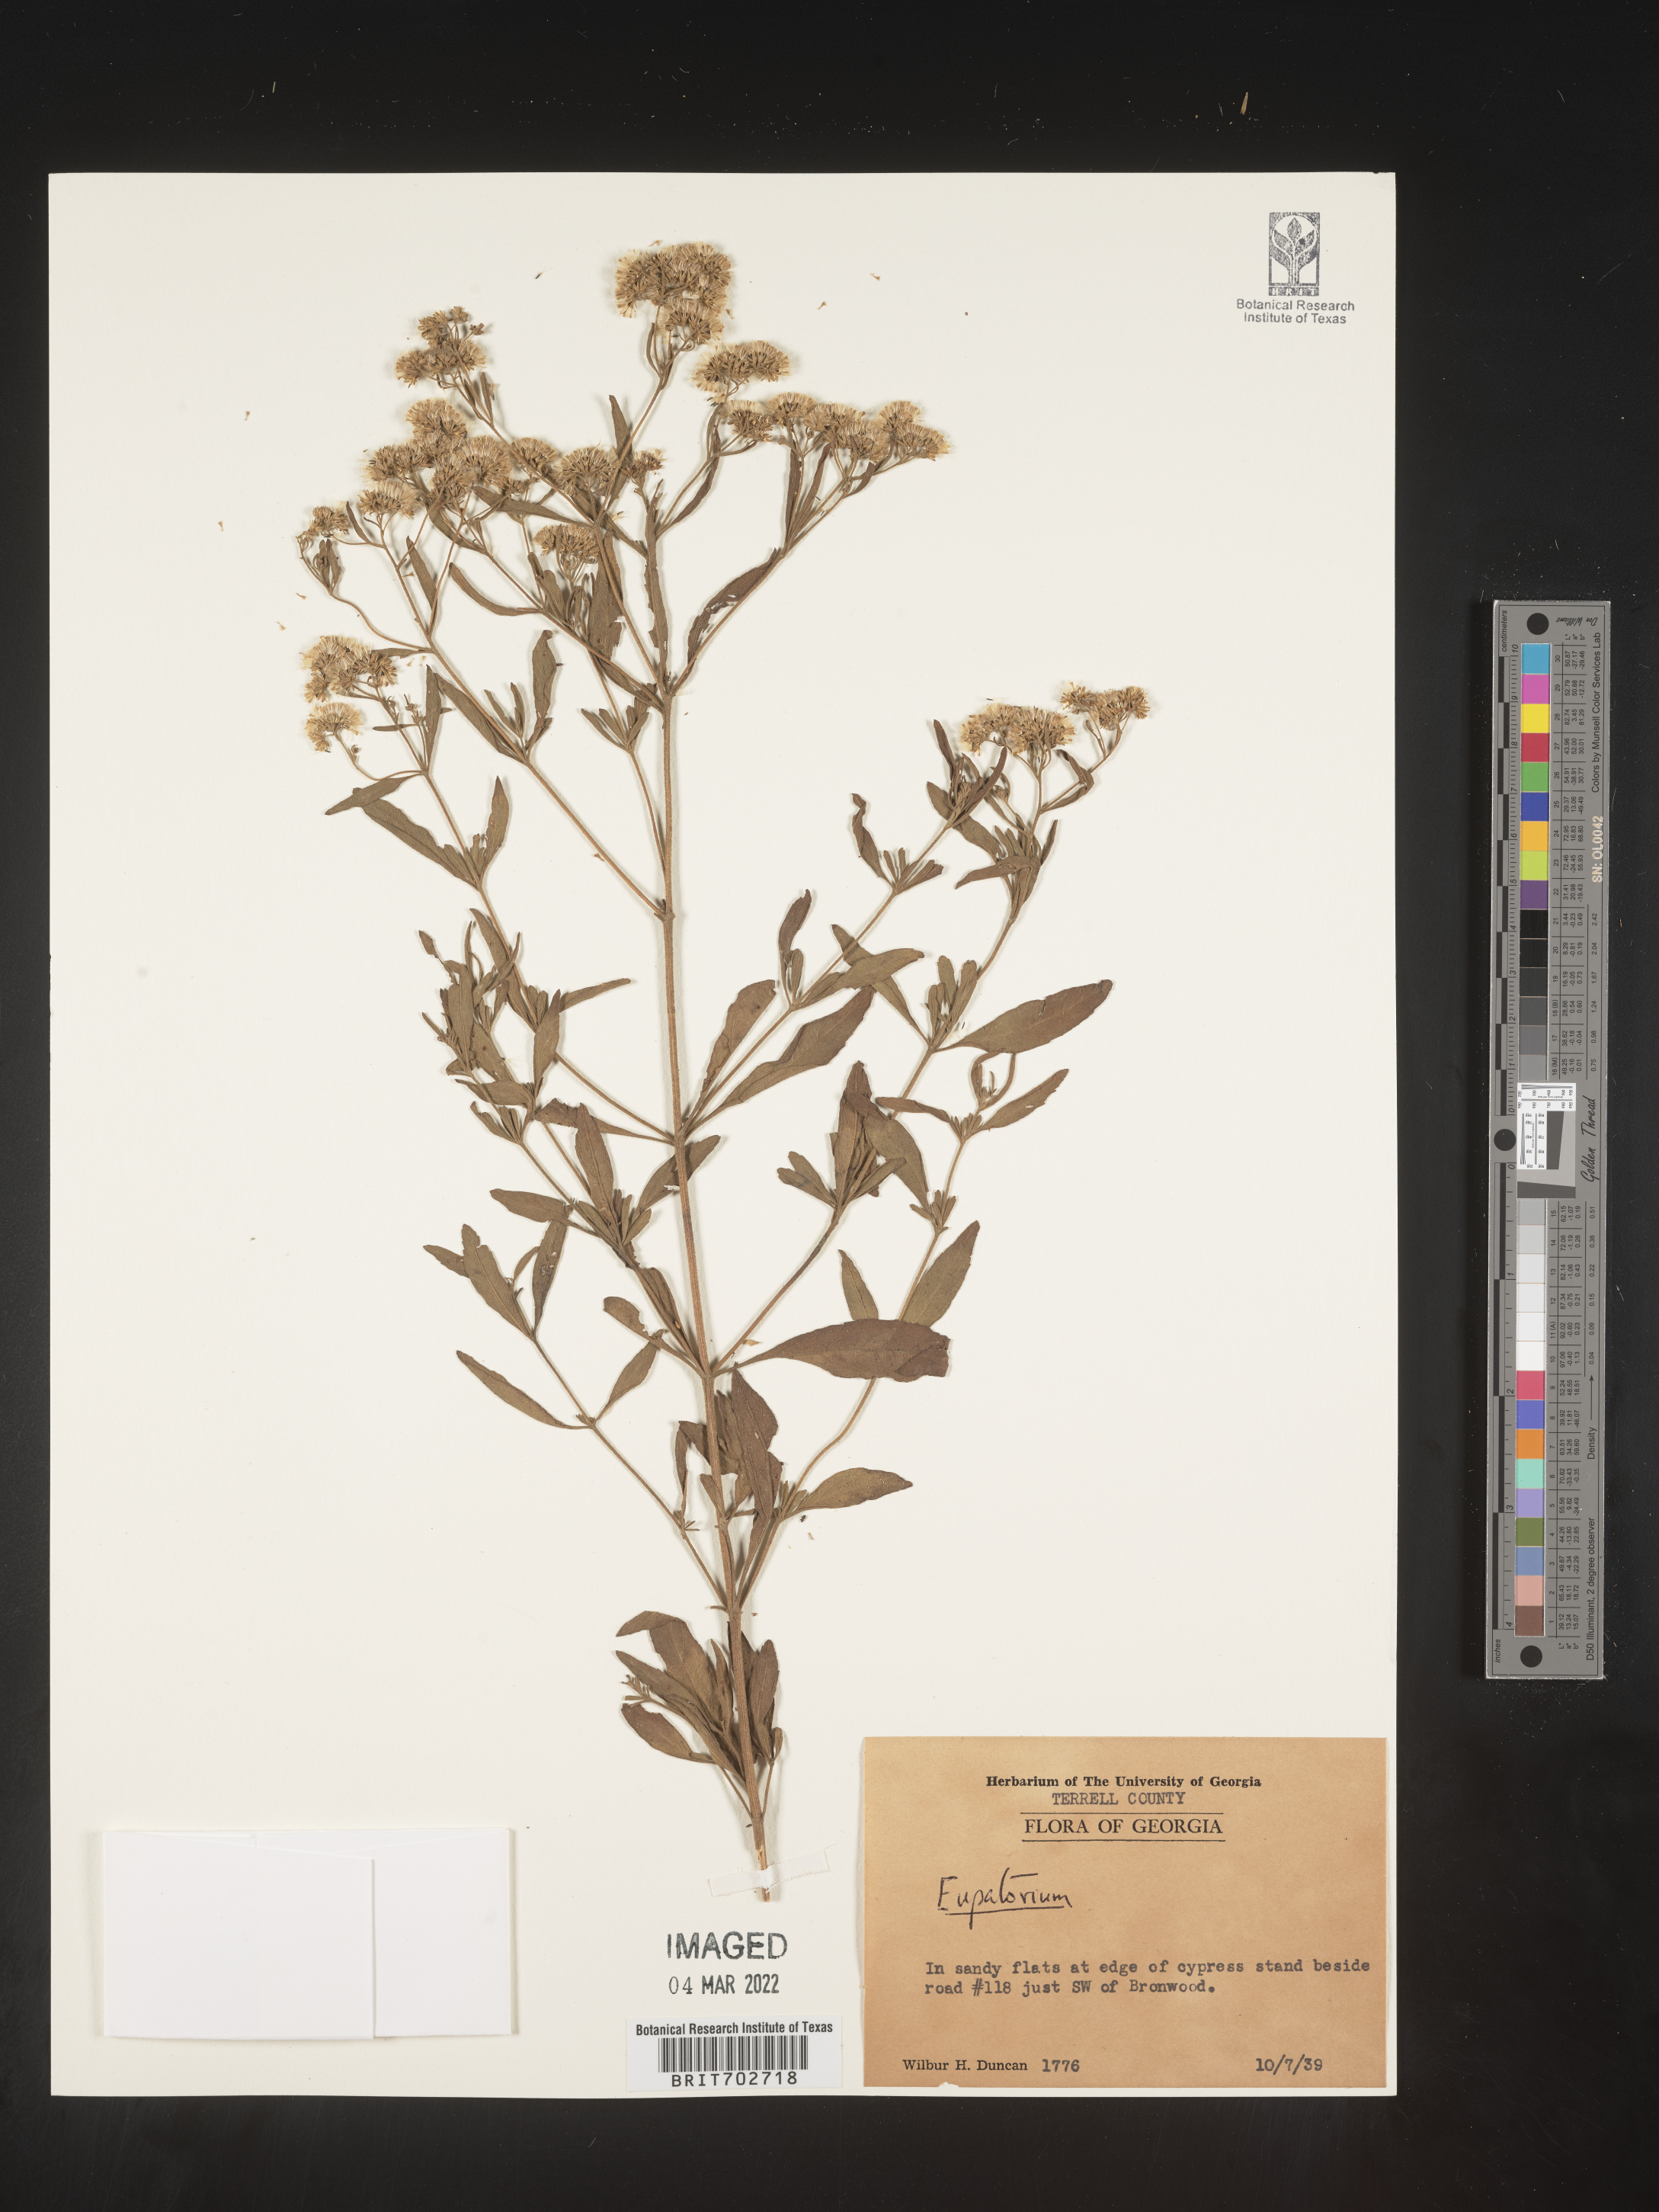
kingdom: Plantae
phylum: Tracheophyta
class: Magnoliopsida
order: Asterales
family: Asteraceae
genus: Eupatorium
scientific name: Eupatorium
